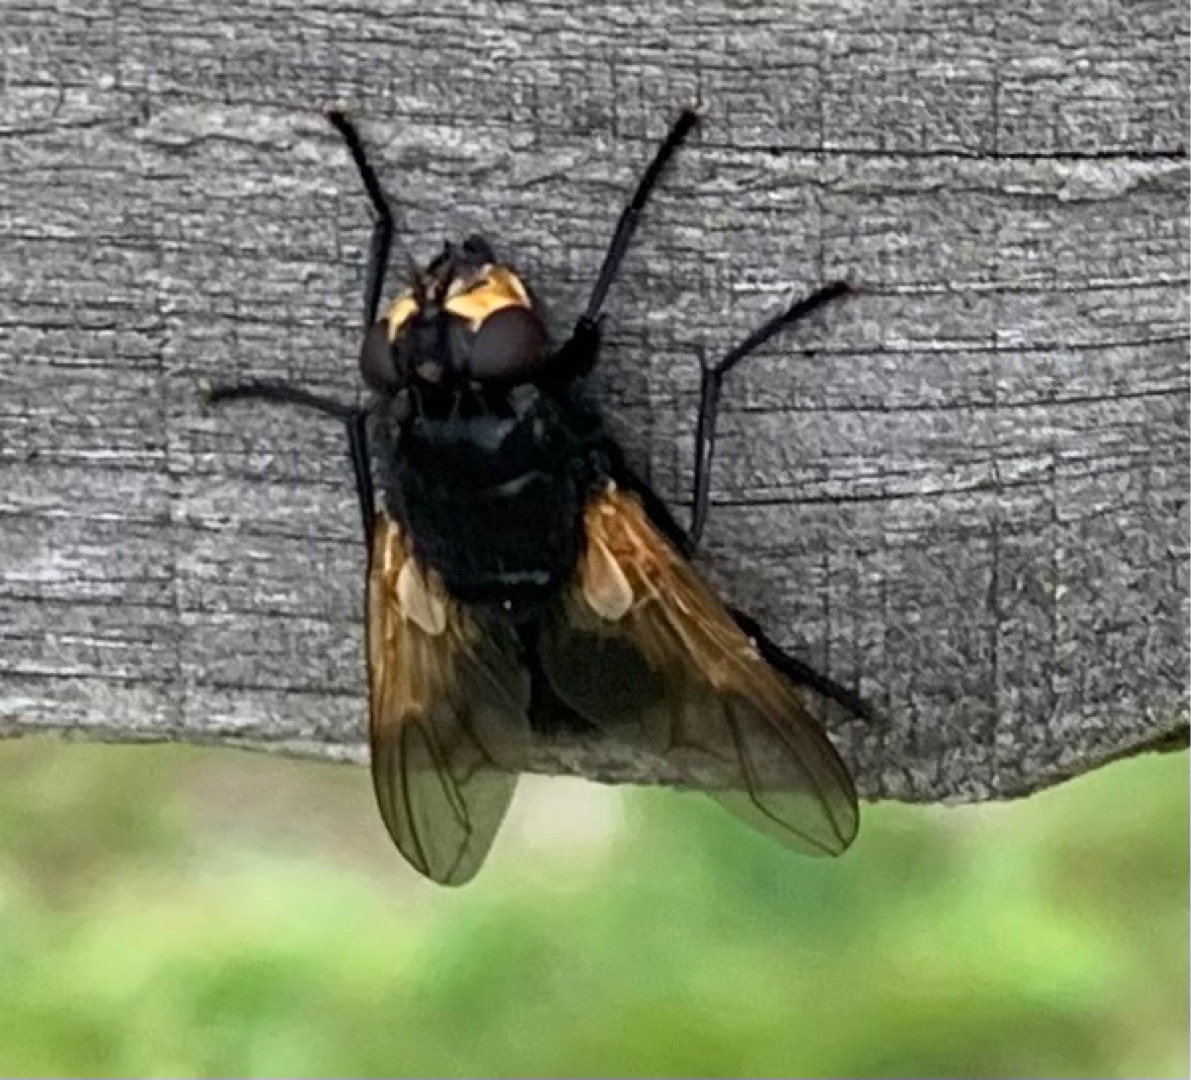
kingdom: Animalia
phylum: Arthropoda
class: Insecta
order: Diptera
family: Muscidae
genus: Mesembrina
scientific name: Mesembrina meridiana
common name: Gulvinget flue
